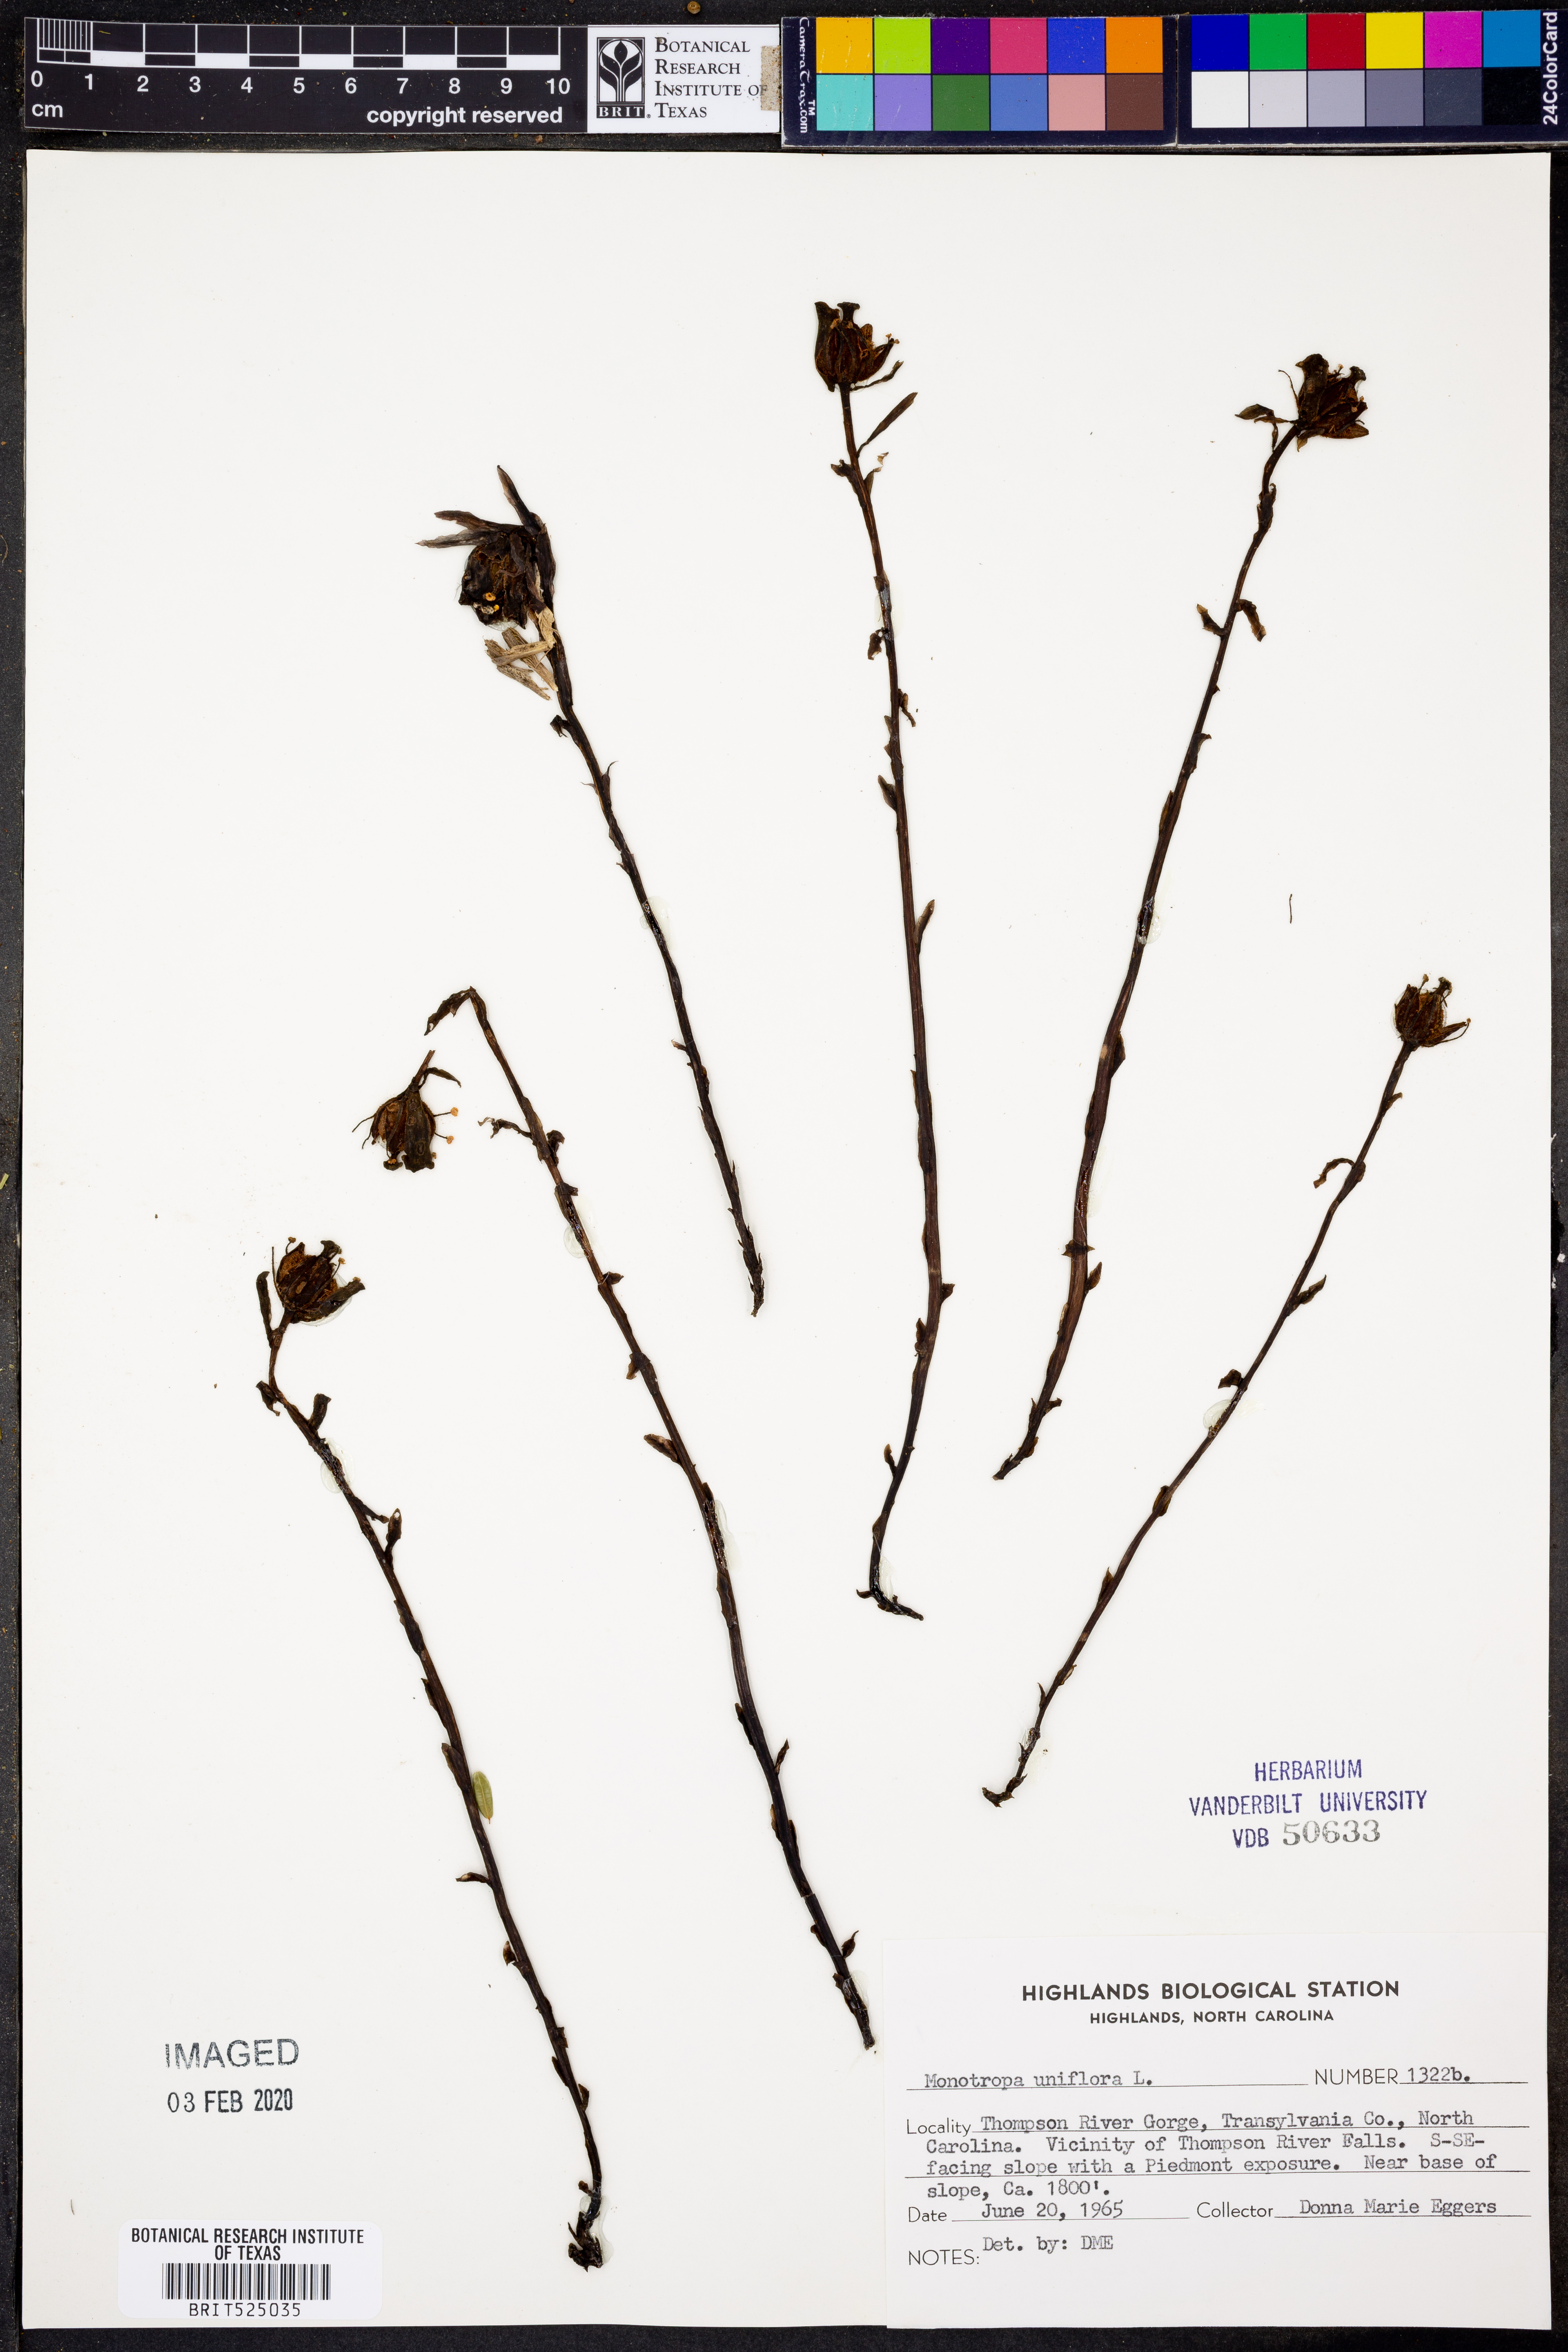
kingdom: Plantae
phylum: Tracheophyta
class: Magnoliopsida
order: Ericales
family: Ericaceae
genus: Monotropa
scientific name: Monotropa uniflora
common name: Convulsion root
